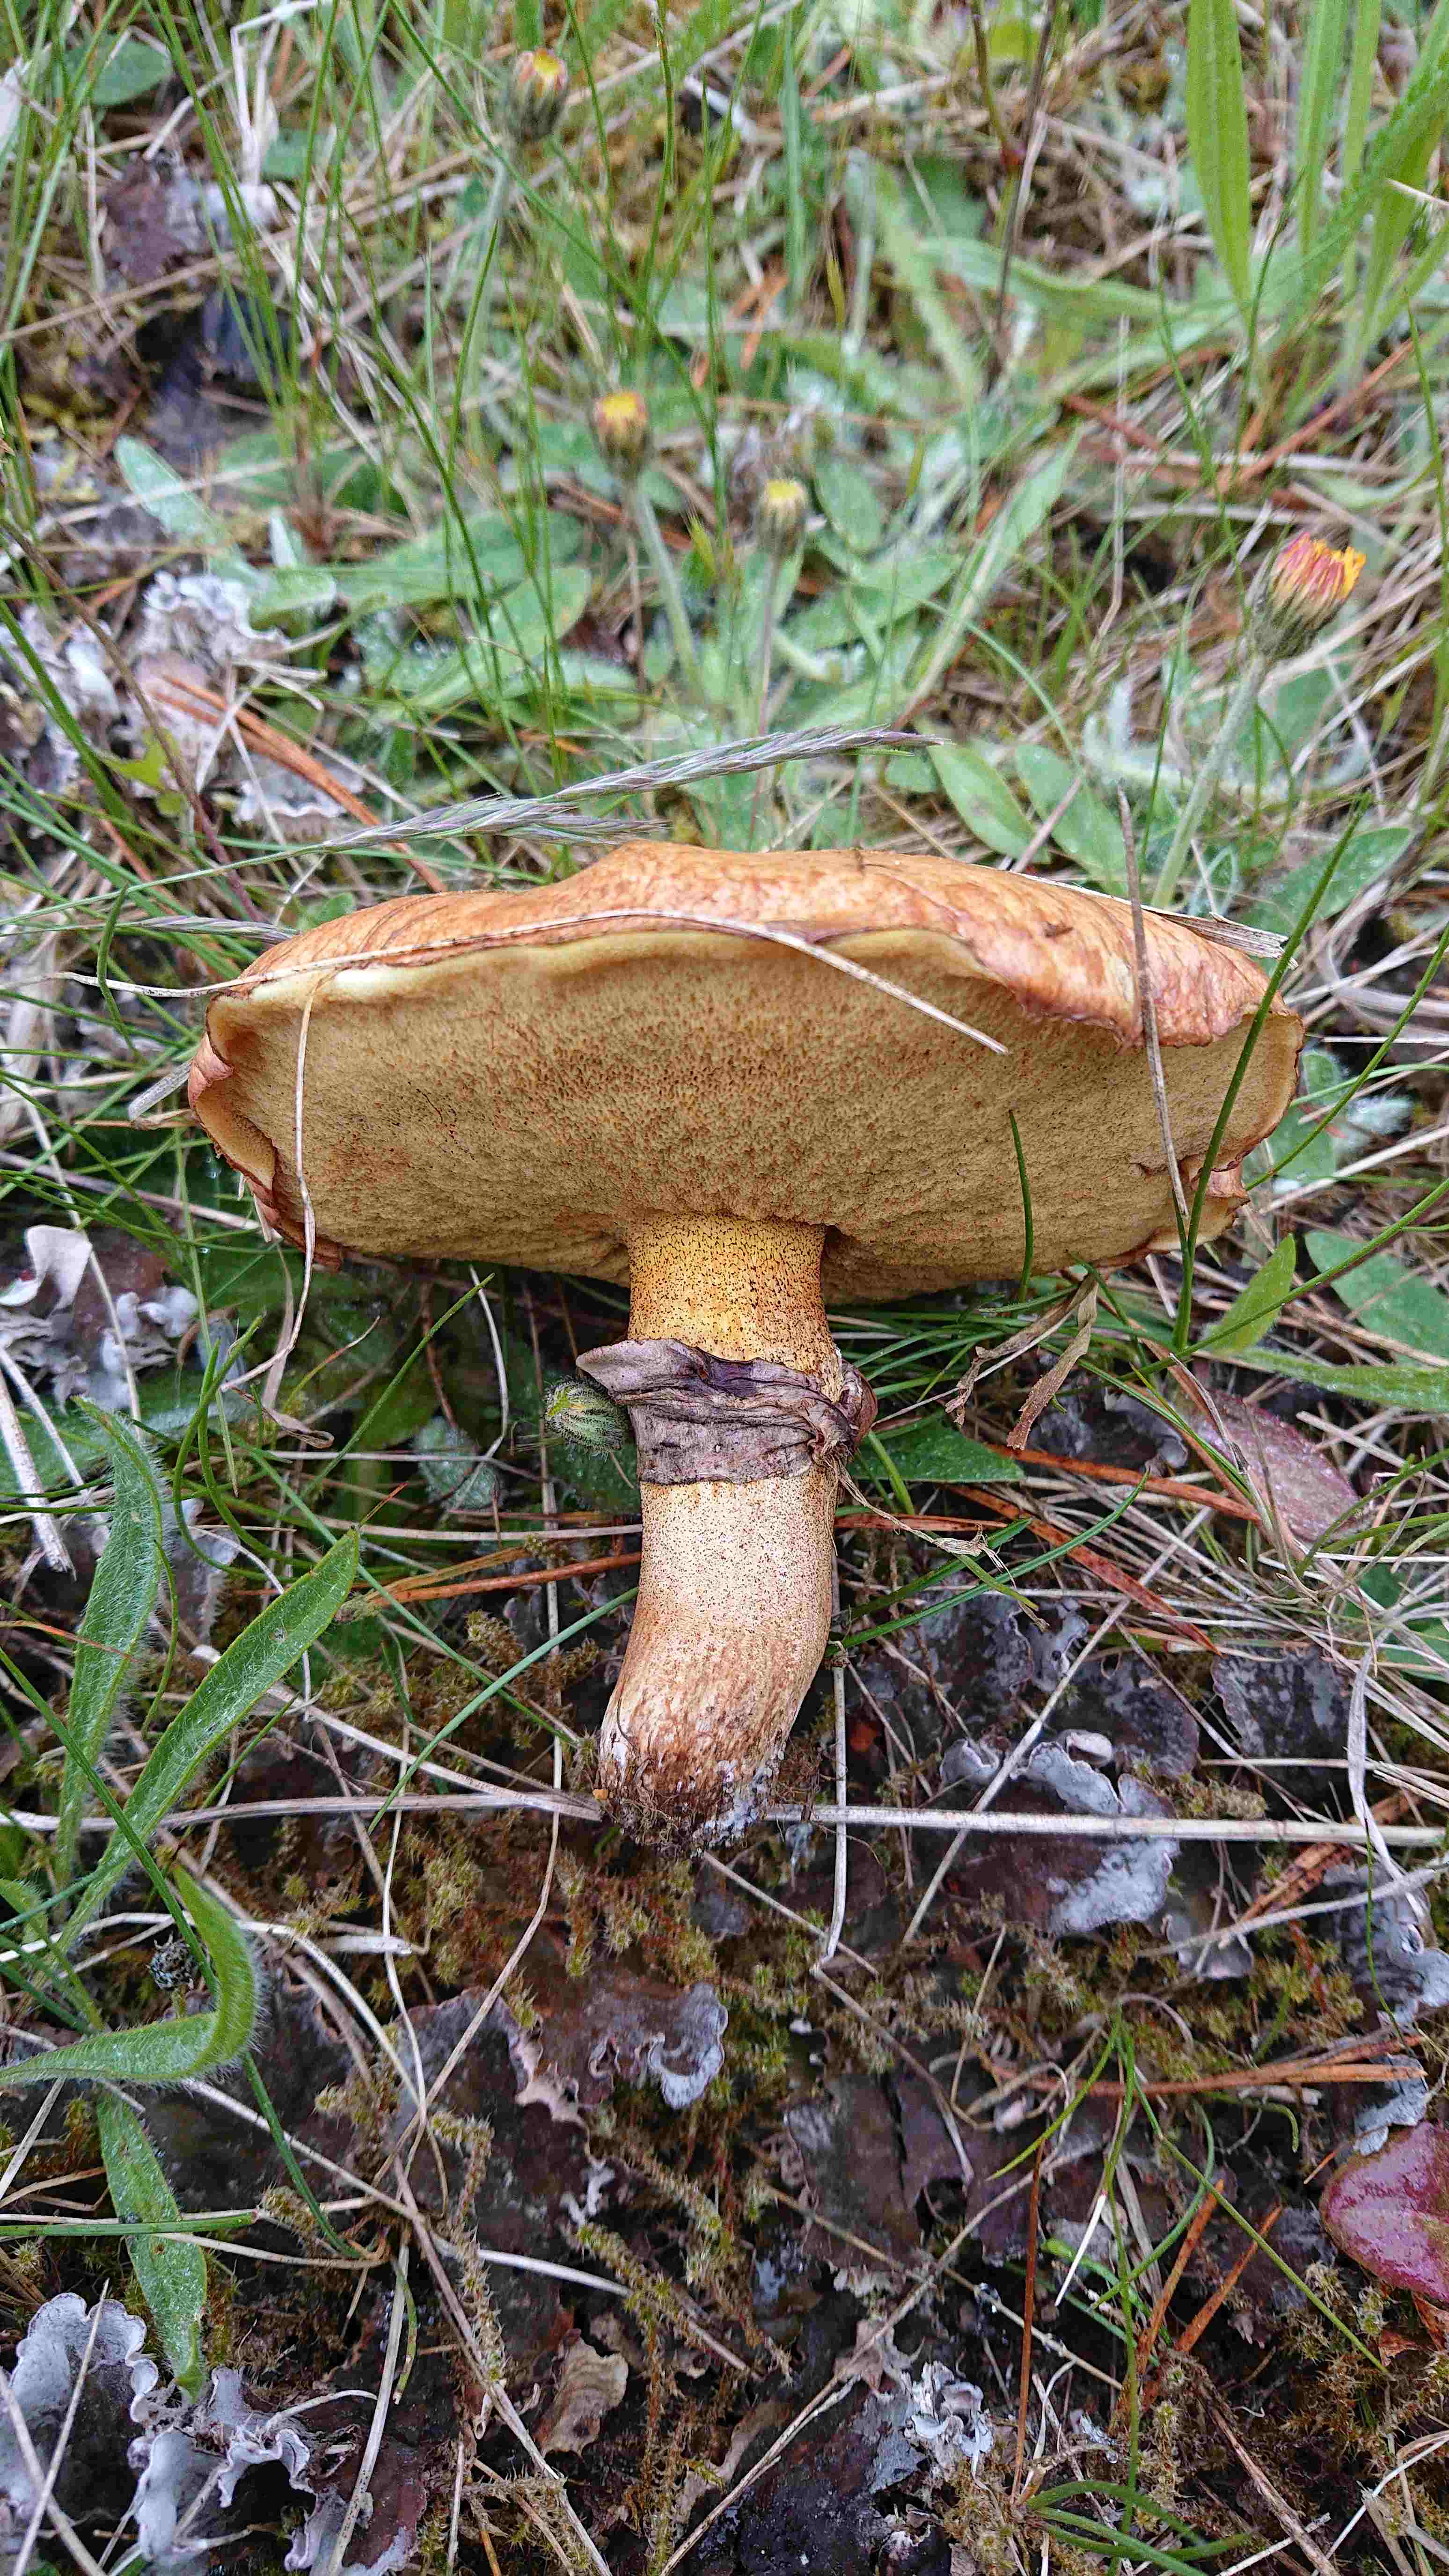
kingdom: Fungi
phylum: Basidiomycota
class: Agaricomycetes
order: Boletales
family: Suillaceae
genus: Suillus
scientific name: Suillus luteus
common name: brungul slimrørhat
